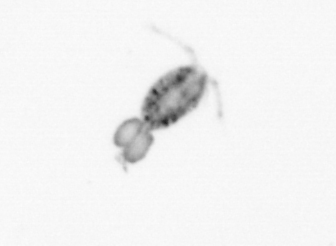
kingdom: Animalia
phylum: Arthropoda
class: Copepoda
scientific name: Copepoda
